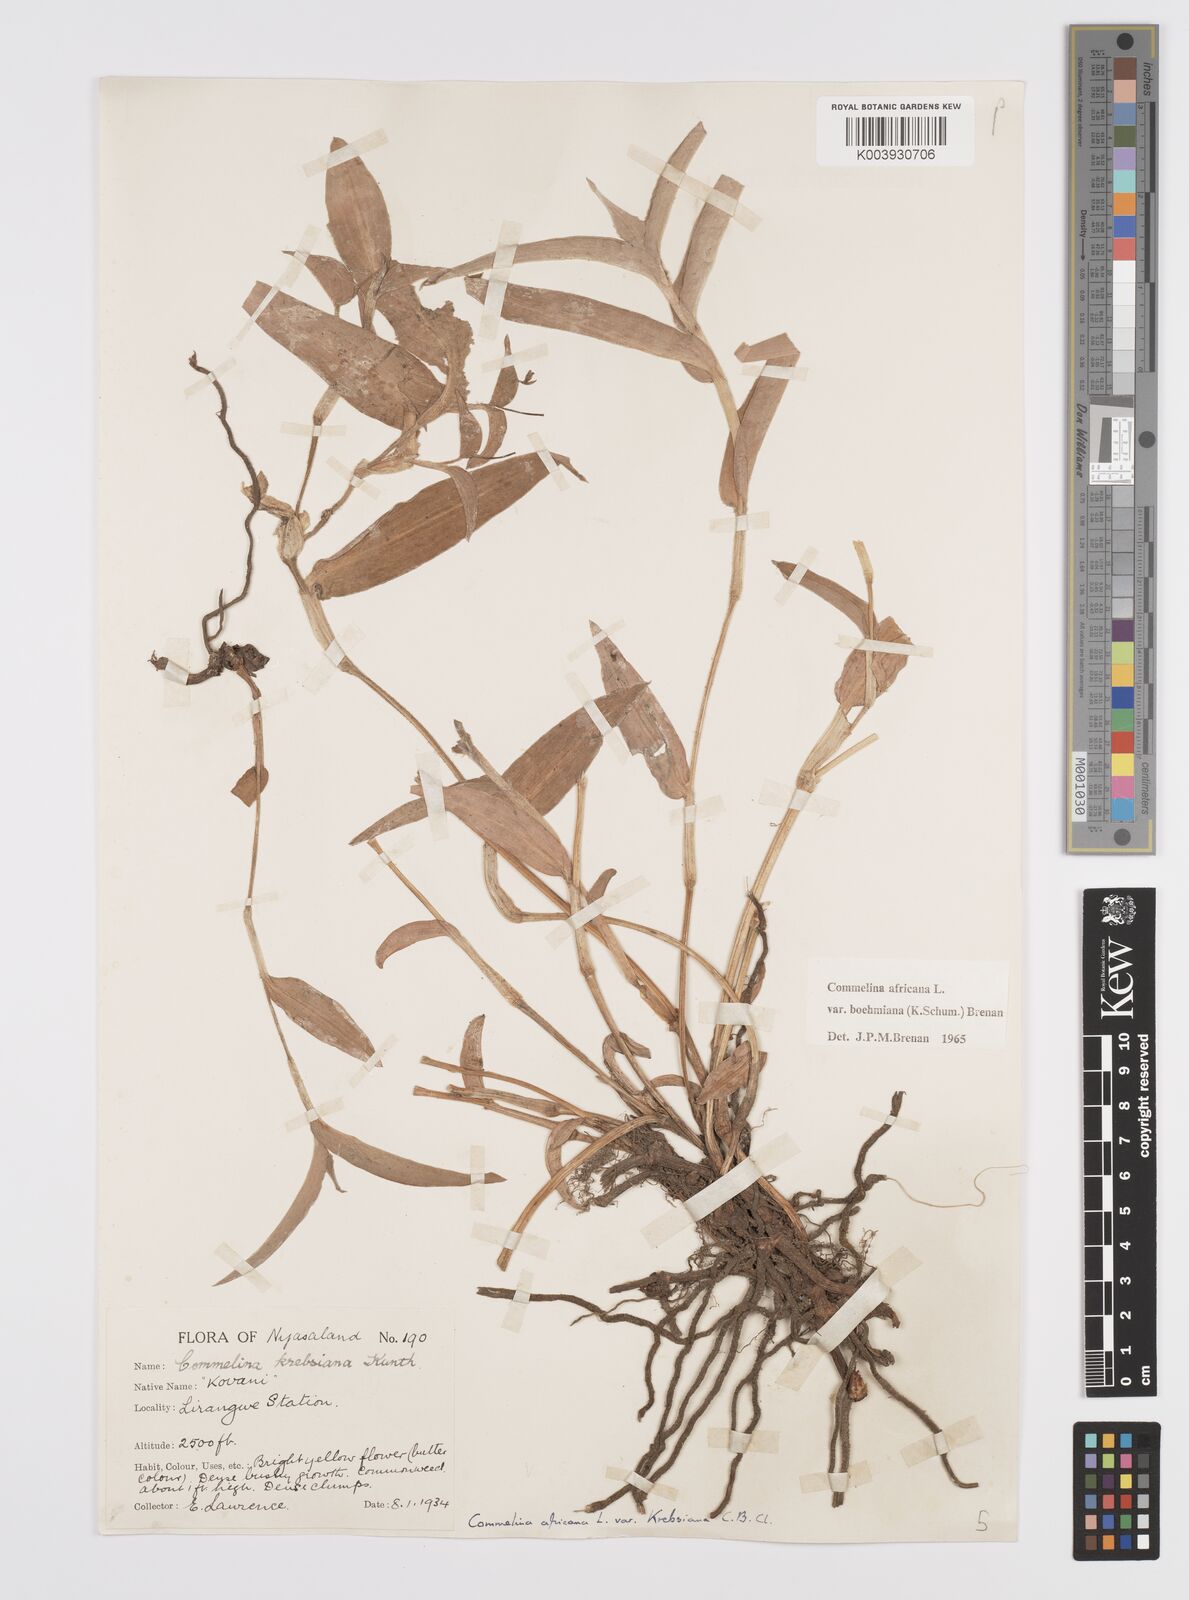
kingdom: Plantae
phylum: Tracheophyta
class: Liliopsida
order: Commelinales
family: Commelinaceae
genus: Commelina
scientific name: Commelina africana
